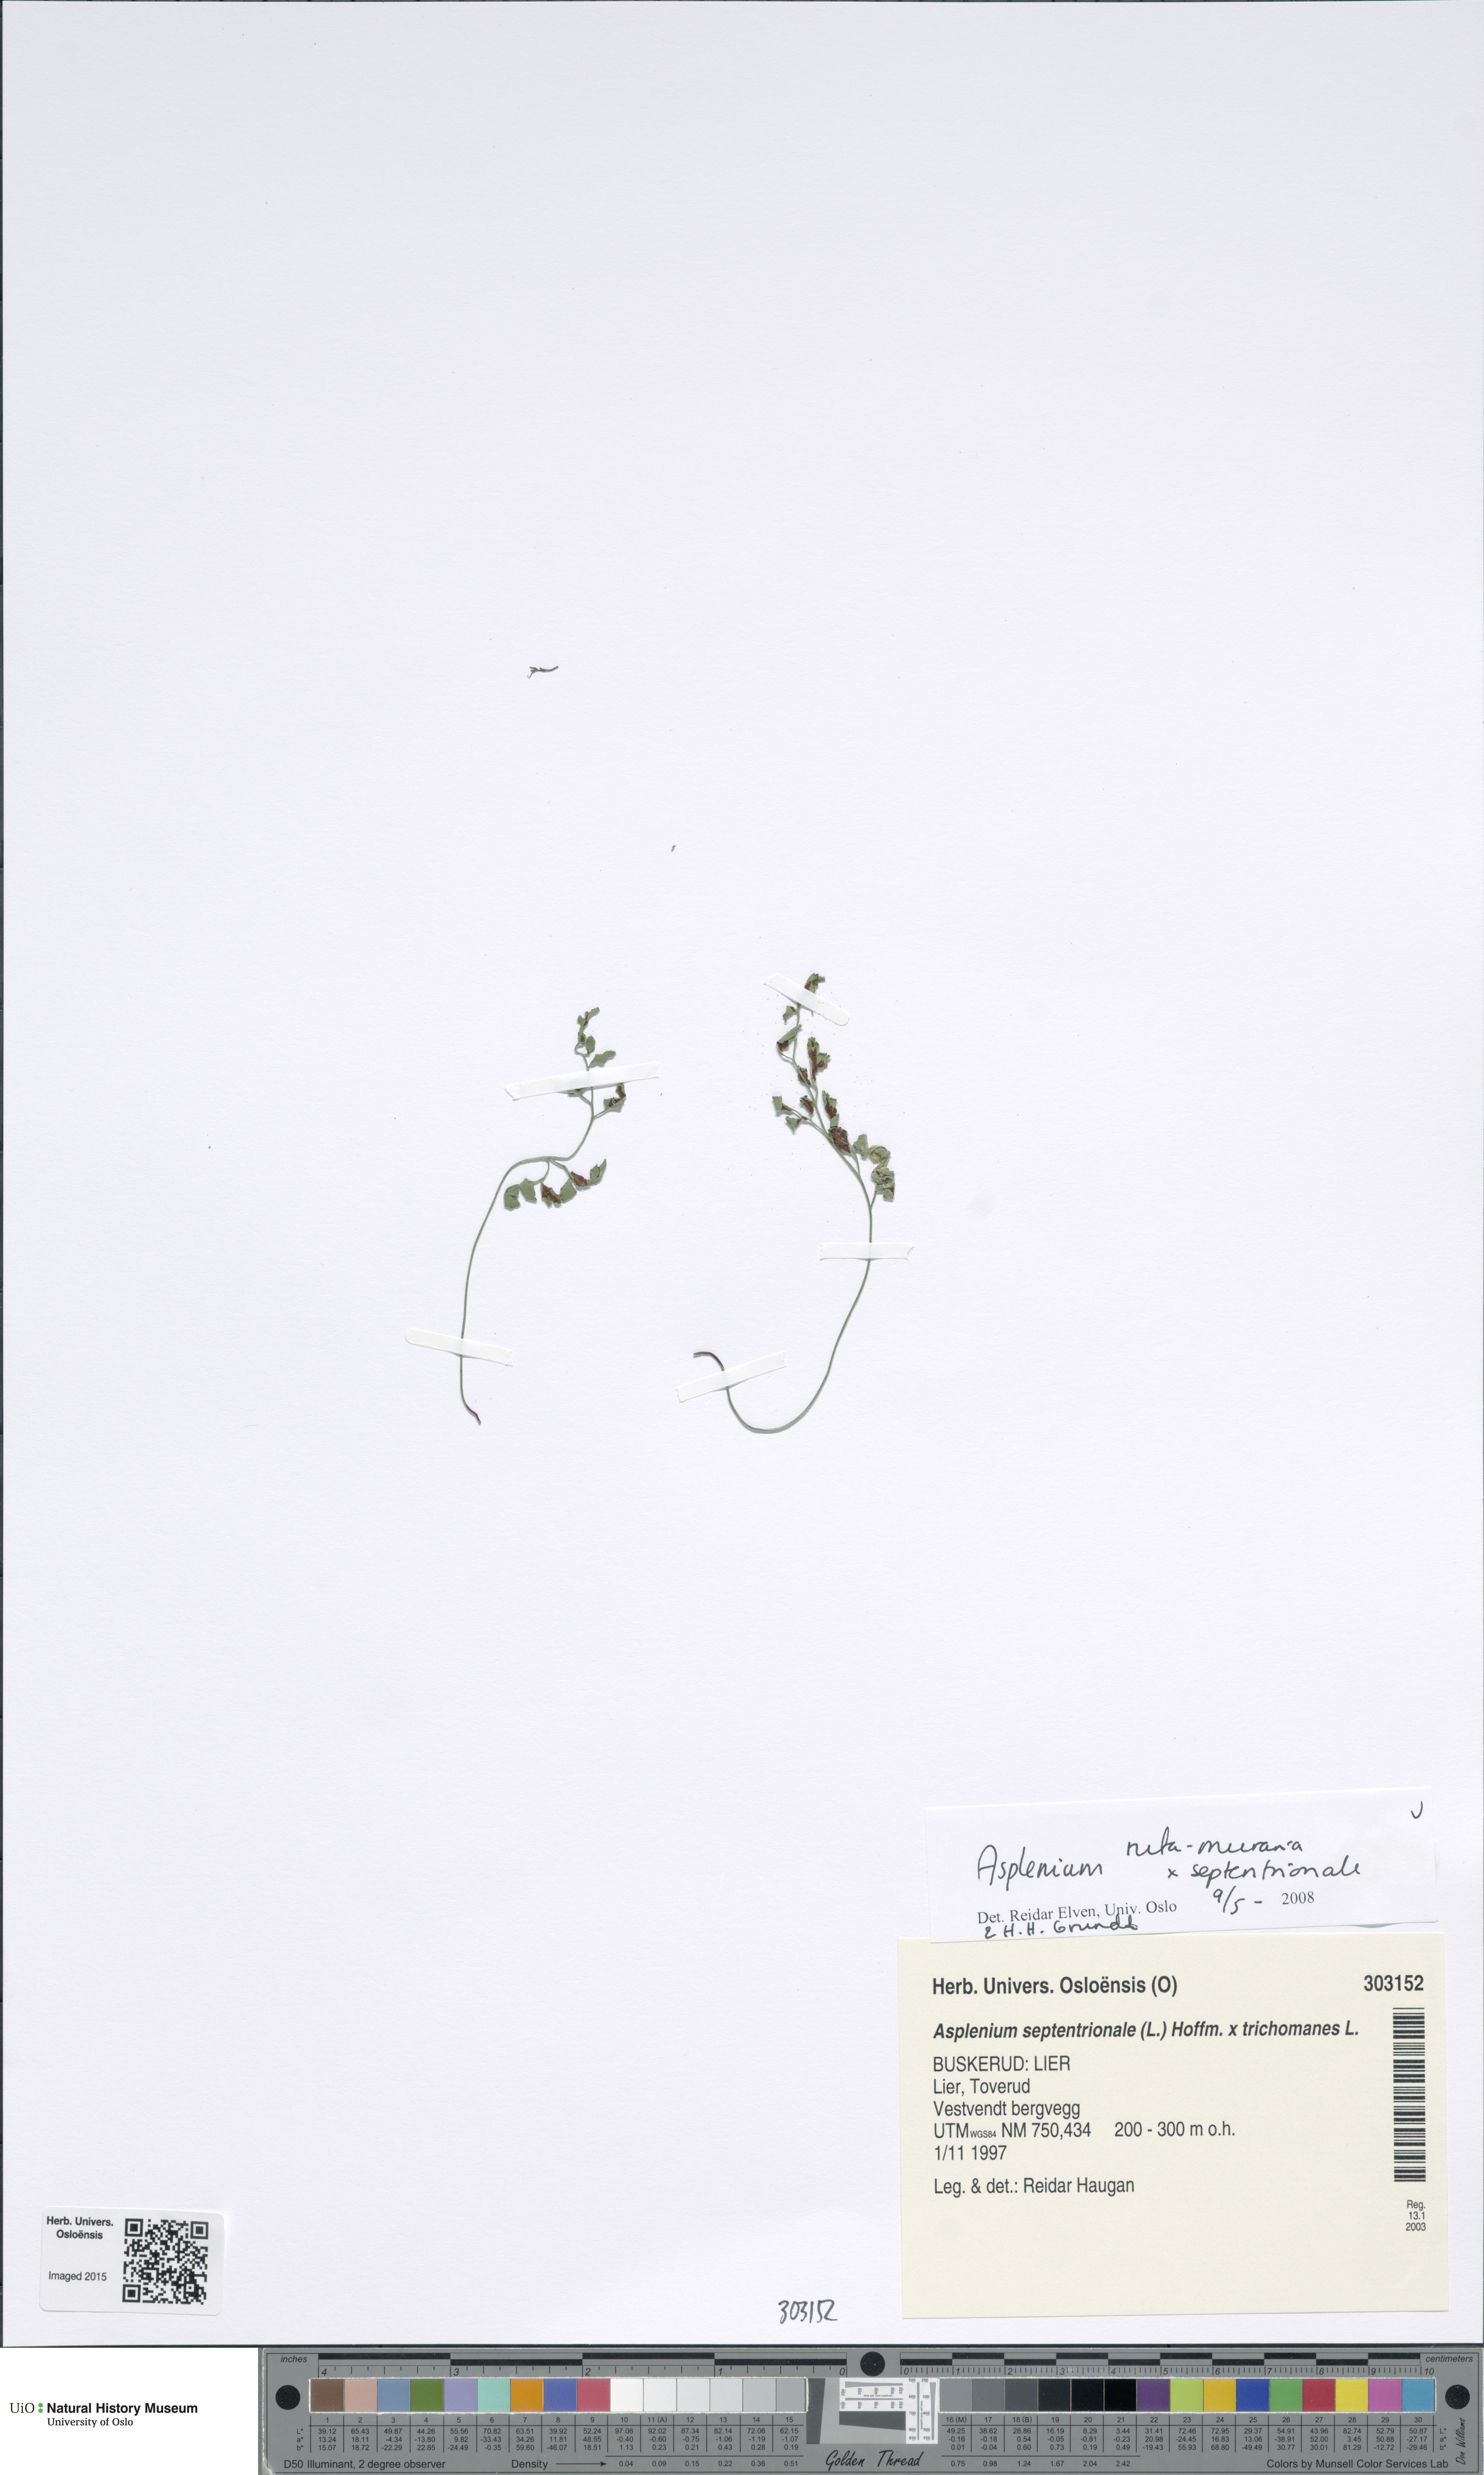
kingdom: Plantae
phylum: Tracheophyta
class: Polypodiopsida
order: Polypodiales
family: Aspleniaceae
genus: Asplenium
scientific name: Asplenium
